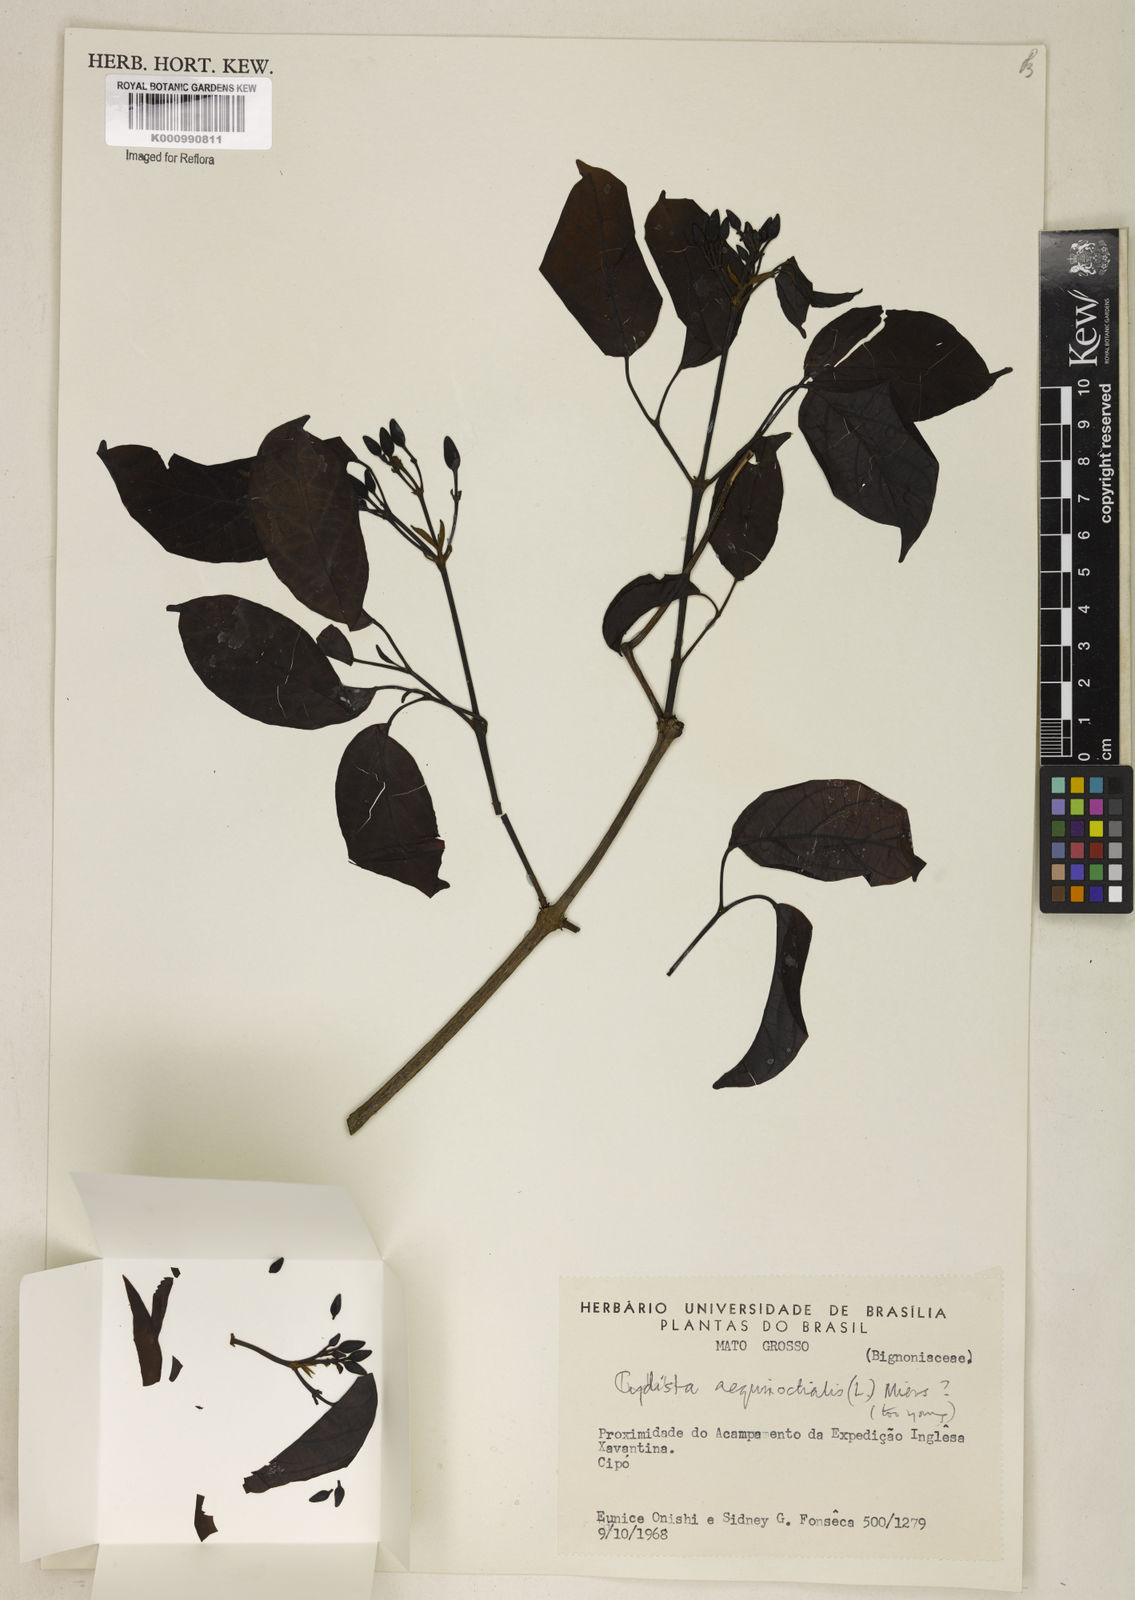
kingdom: Plantae
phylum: Tracheophyta
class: Magnoliopsida
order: Lamiales
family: Bignoniaceae
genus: Bignonia
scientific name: Bignonia aequinoctialis
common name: Garlicvine
